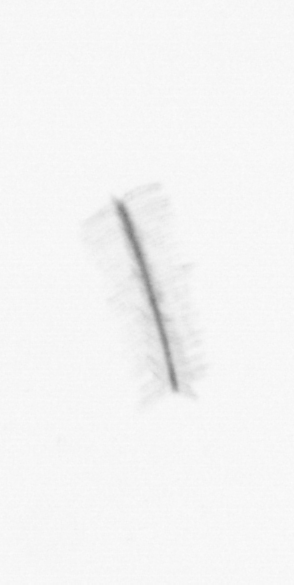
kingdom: Chromista
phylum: Ochrophyta
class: Bacillariophyceae
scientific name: Bacillariophyceae
